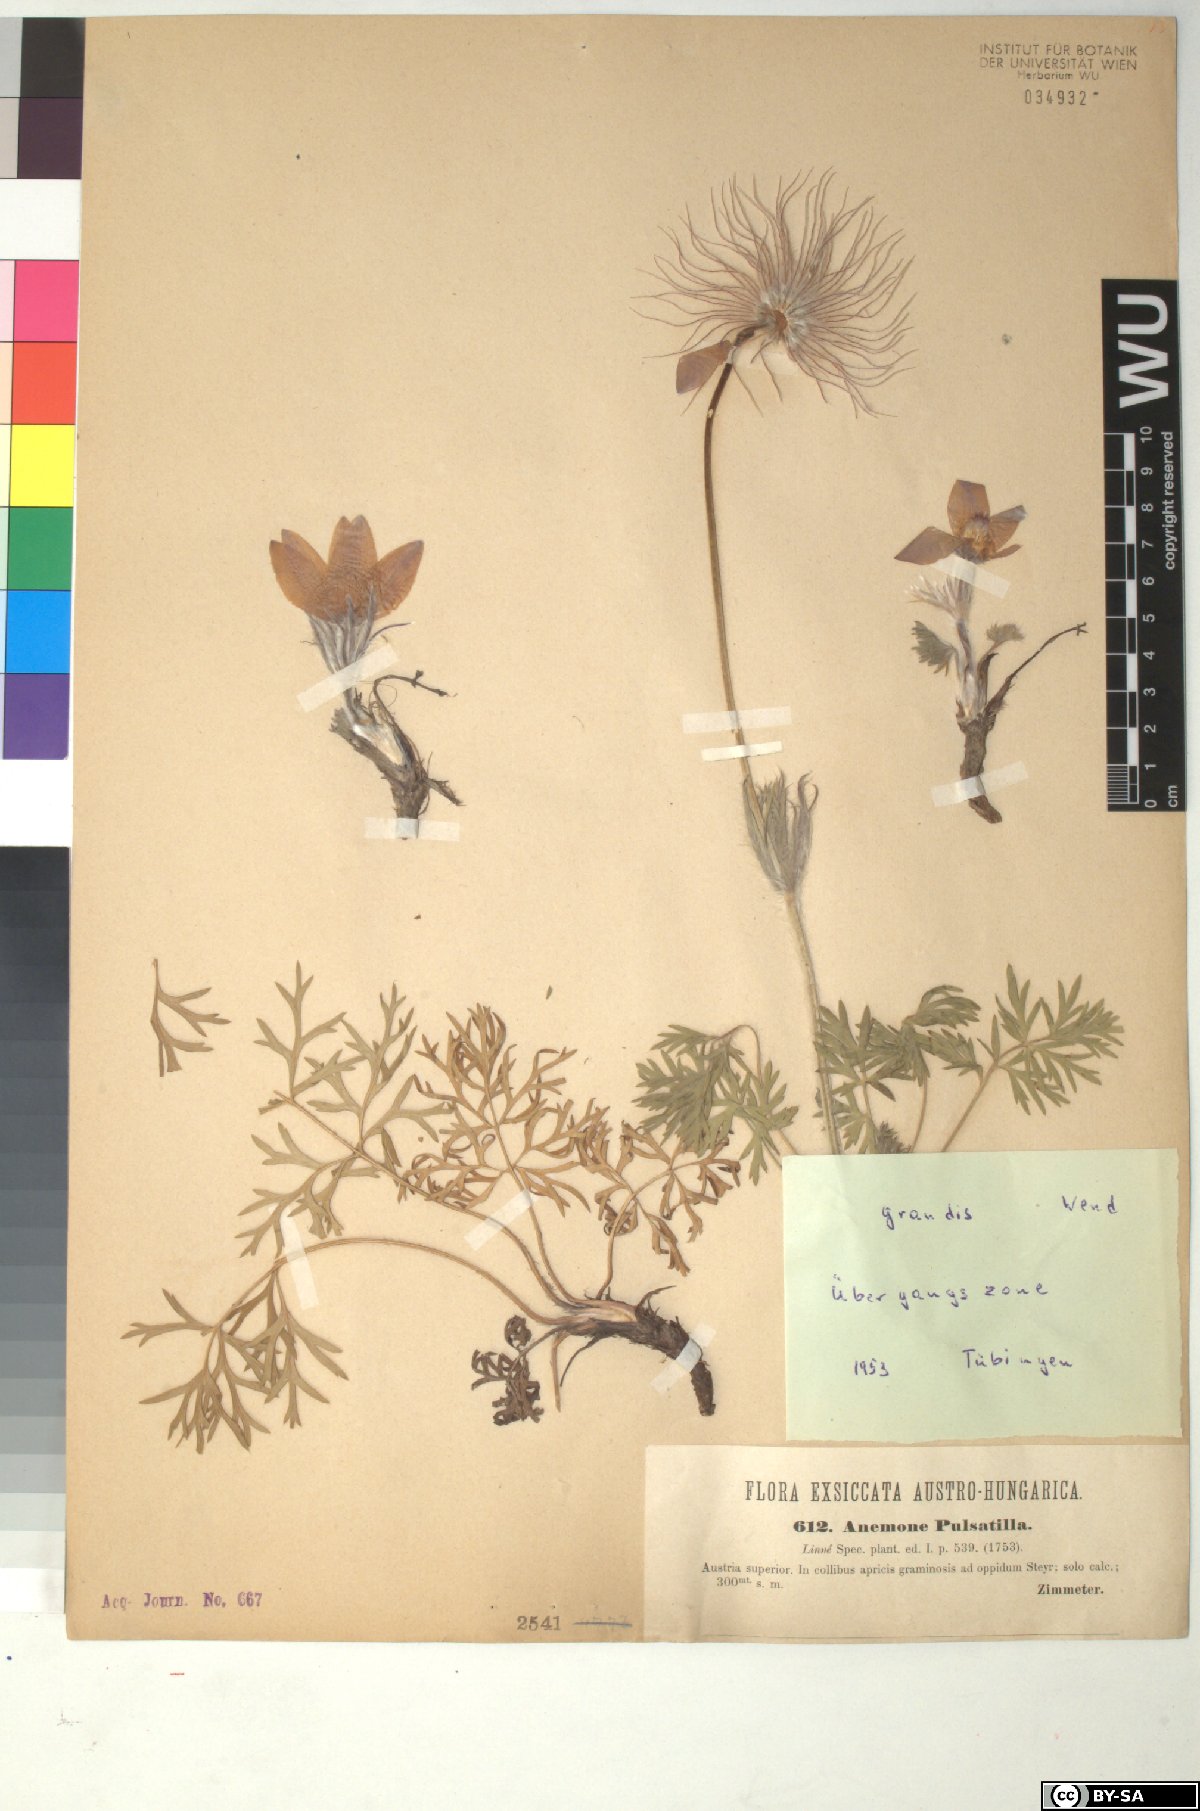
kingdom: Plantae
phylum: Tracheophyta
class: Magnoliopsida
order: Ranunculales
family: Ranunculaceae
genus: Pulsatilla
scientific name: Pulsatilla grandis
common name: Greater pasque flower
